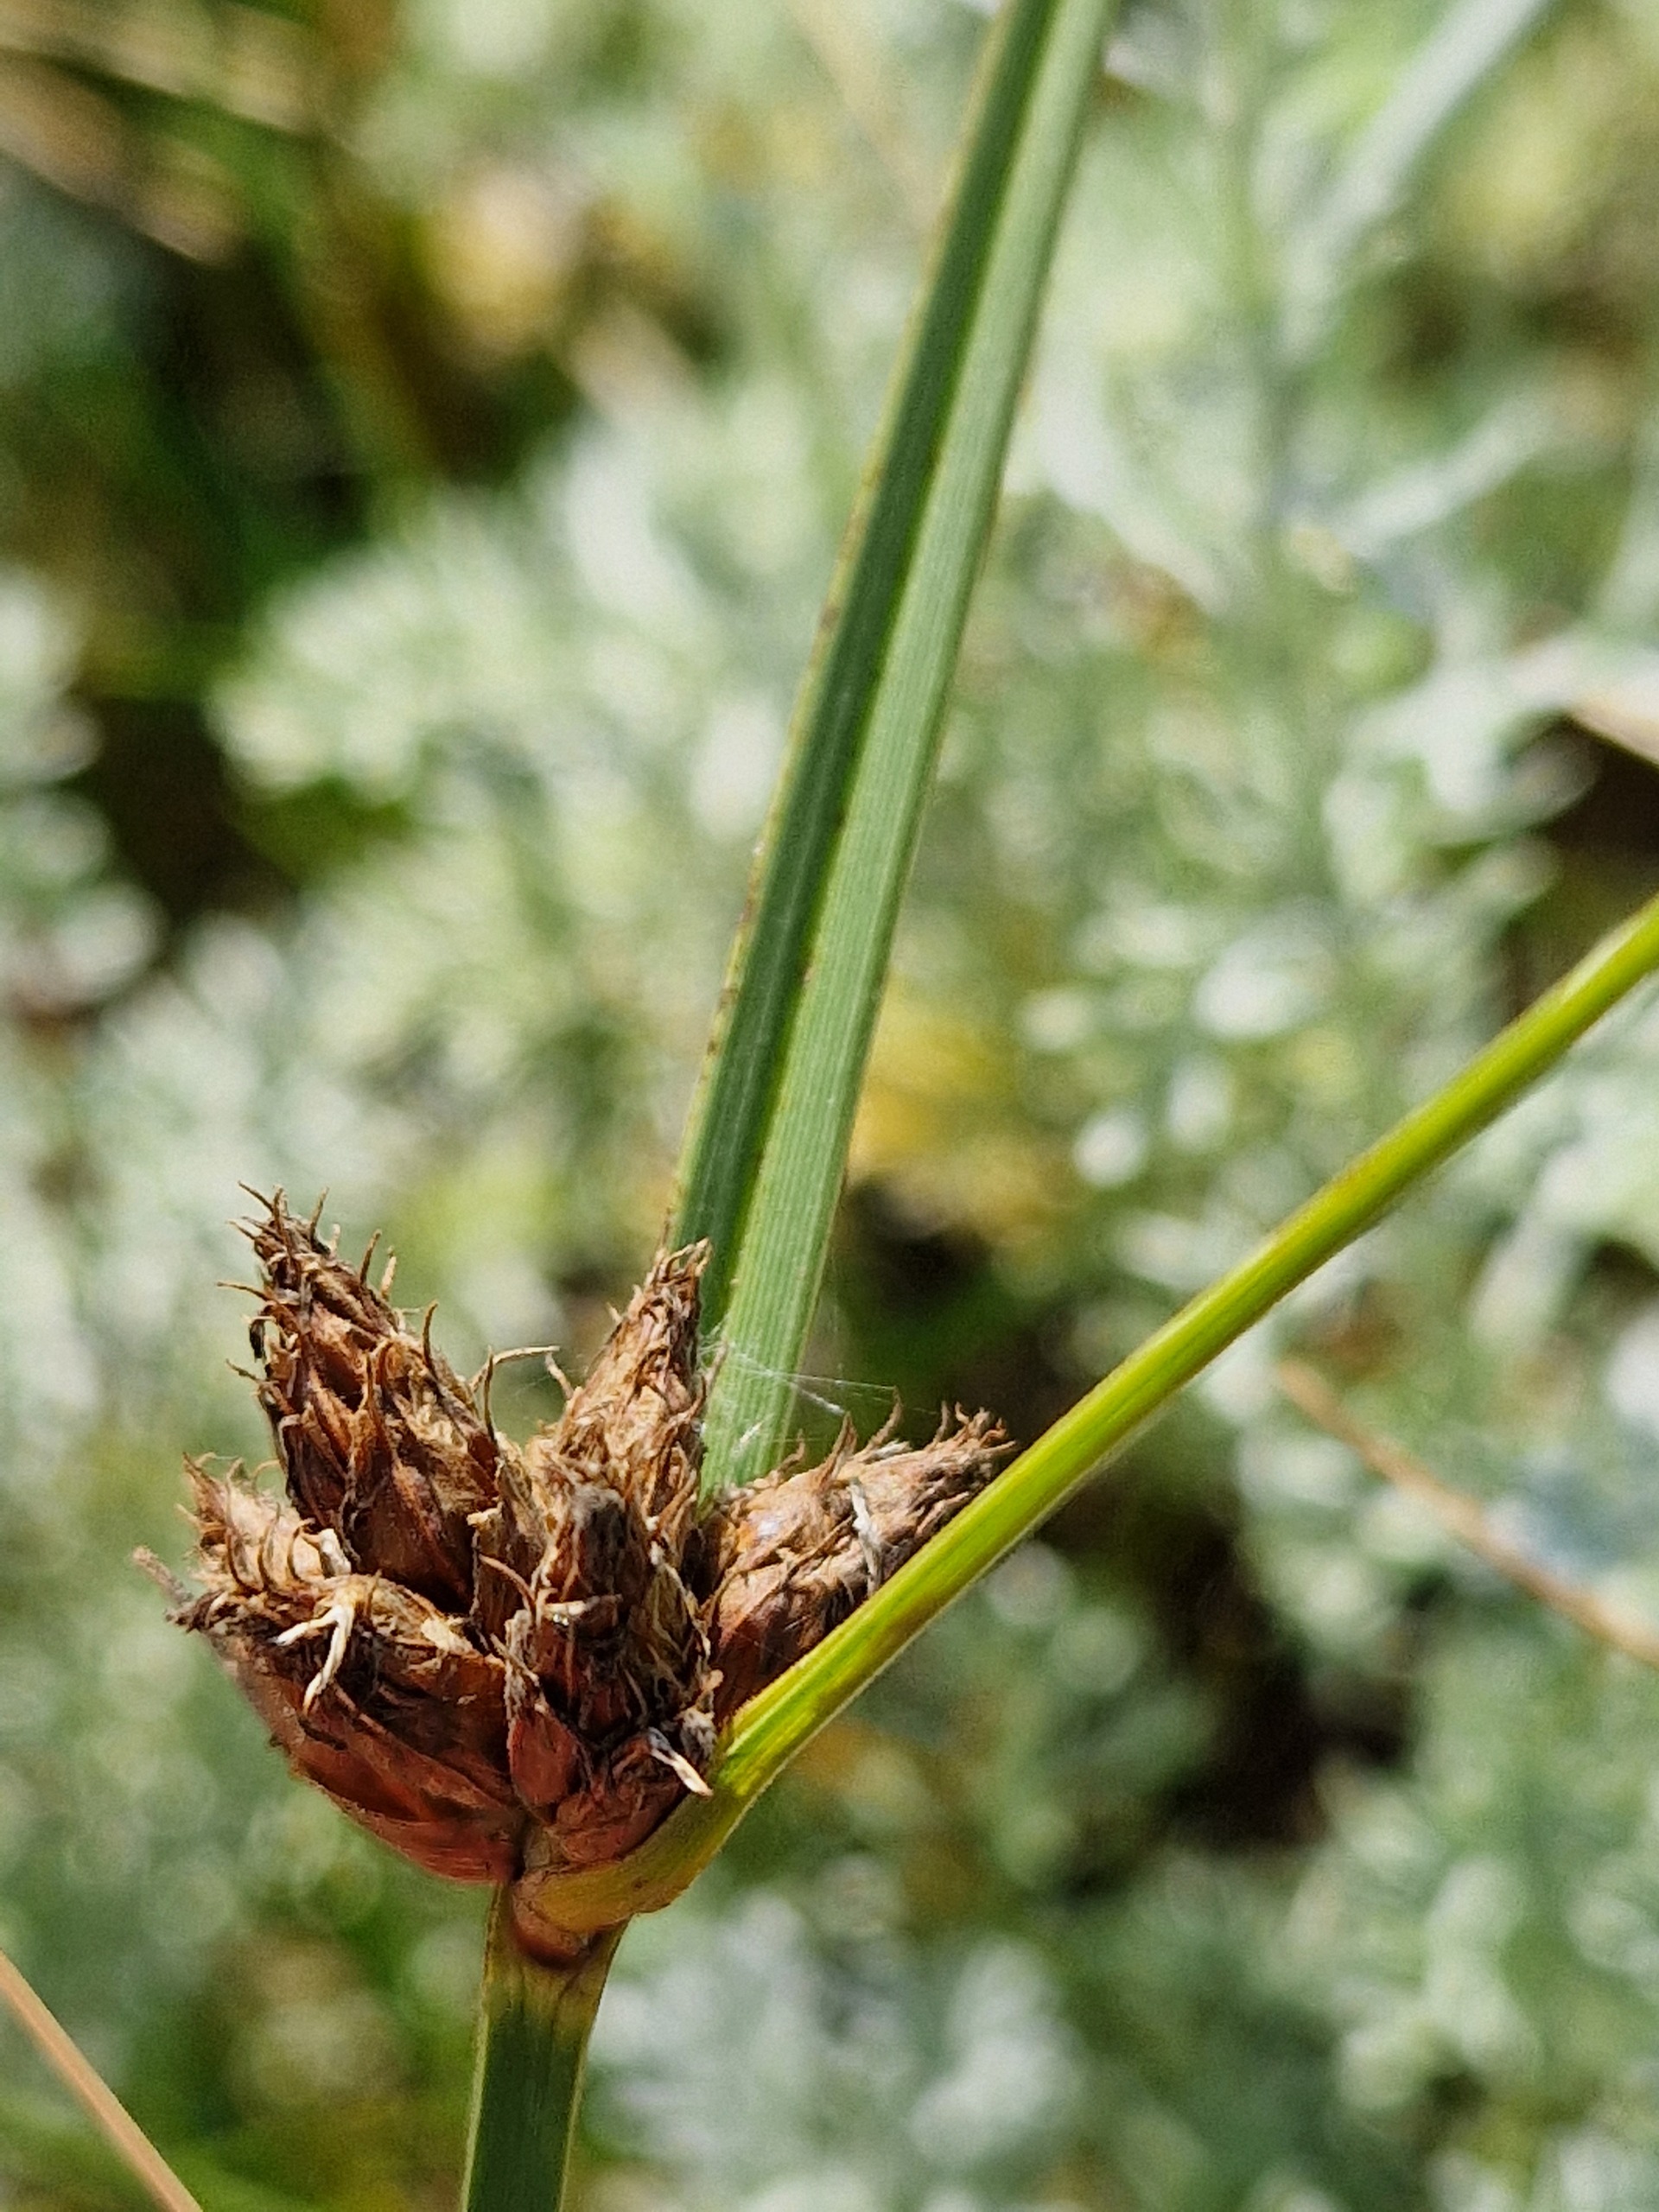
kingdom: Plantae
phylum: Tracheophyta
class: Liliopsida
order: Poales
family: Cyperaceae
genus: Bolboschoenus
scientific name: Bolboschoenus maritimus
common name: Strand-kogleaks
